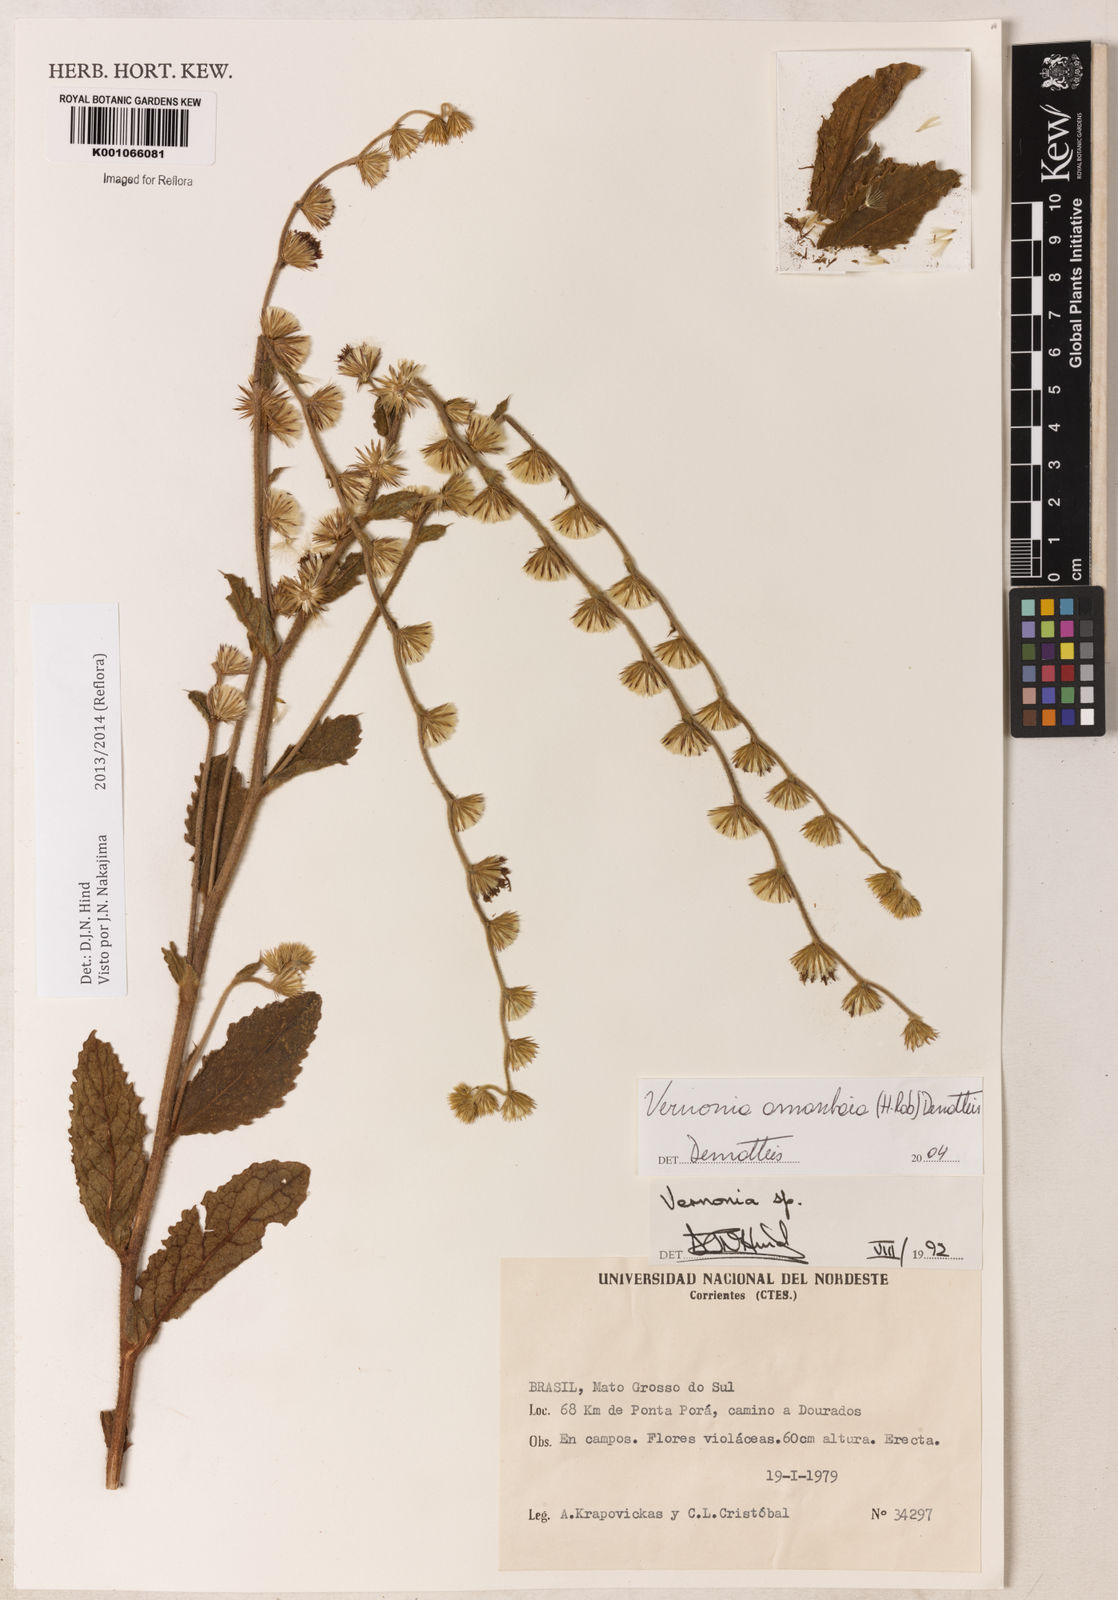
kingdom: Plantae
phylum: Tracheophyta
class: Magnoliopsida
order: Asterales
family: Asteraceae
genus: Lepidaploa
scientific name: Lepidaploa amambaia
